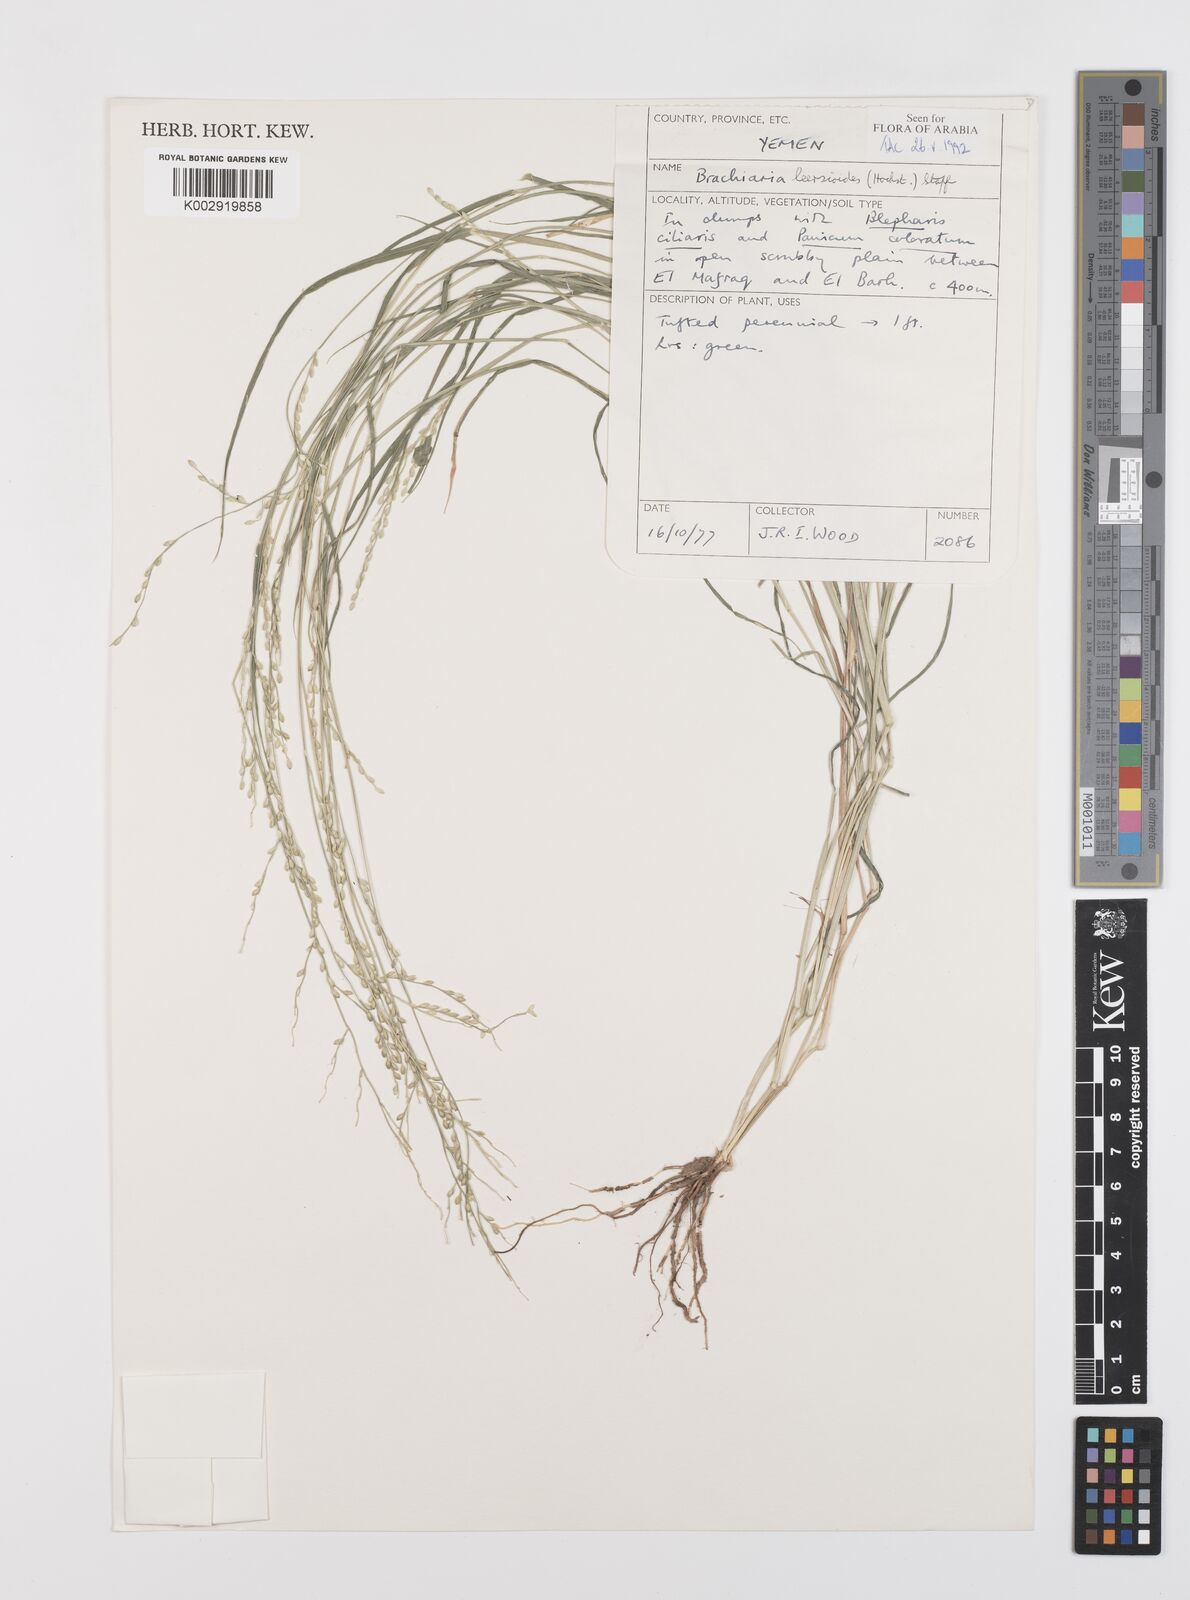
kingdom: Plantae
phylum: Tracheophyta
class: Liliopsida
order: Poales
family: Poaceae
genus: Urochloa
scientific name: Urochloa leersioides
